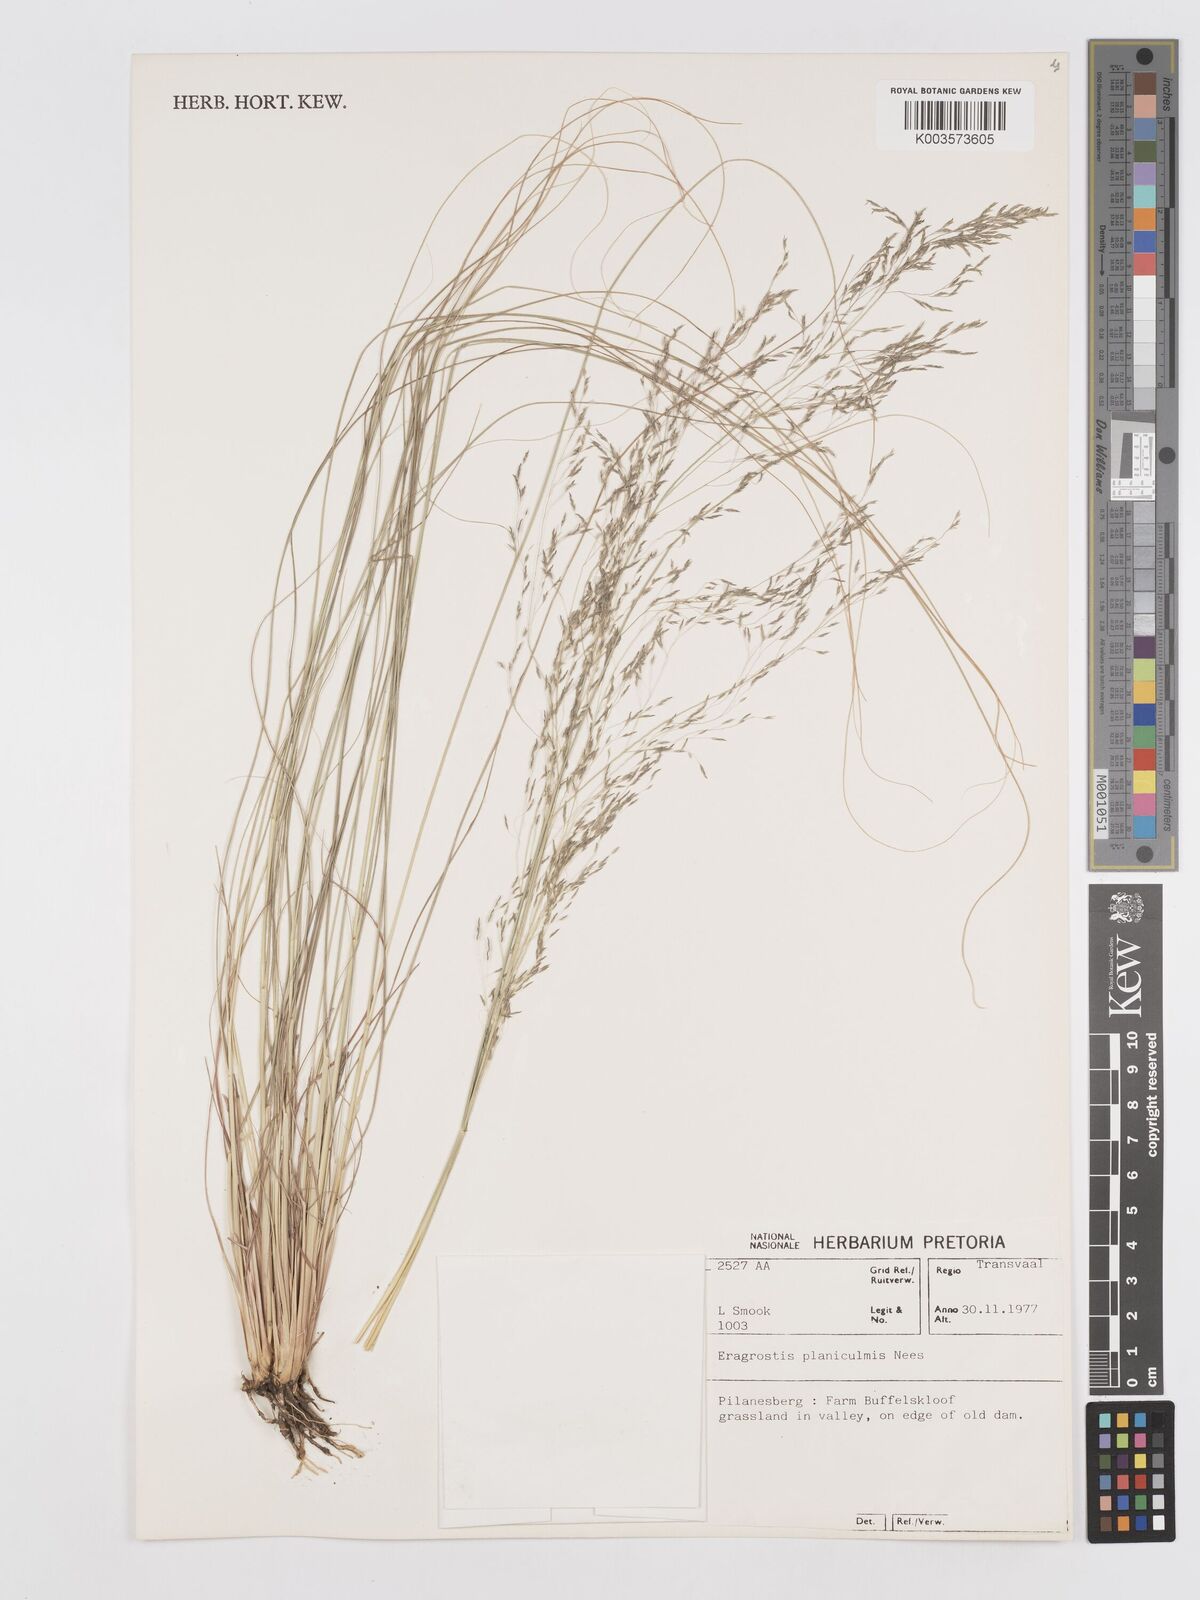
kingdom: Plantae
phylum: Tracheophyta
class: Liliopsida
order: Poales
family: Poaceae
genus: Eragrostis
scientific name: Eragrostis planiculmis
